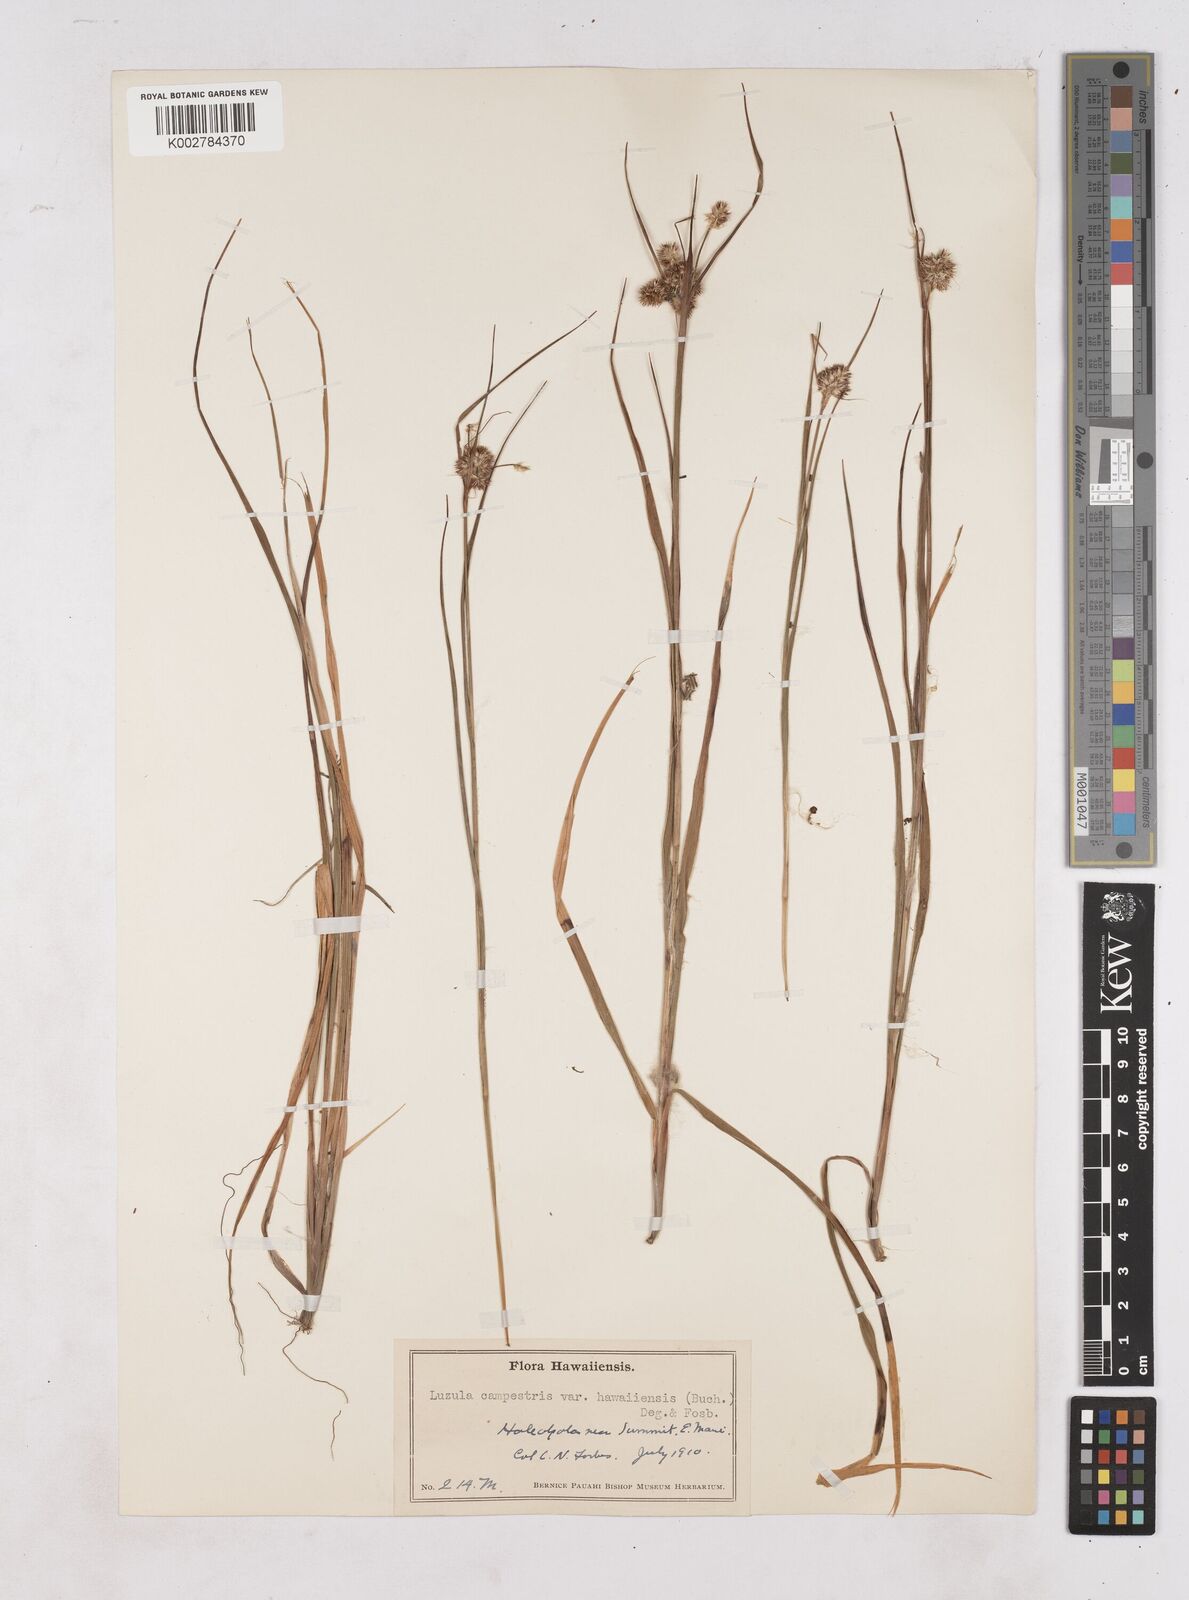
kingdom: Plantae
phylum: Tracheophyta
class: Liliopsida
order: Poales
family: Juncaceae
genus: Luzula
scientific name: Luzula campestris
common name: Field wood-rush
